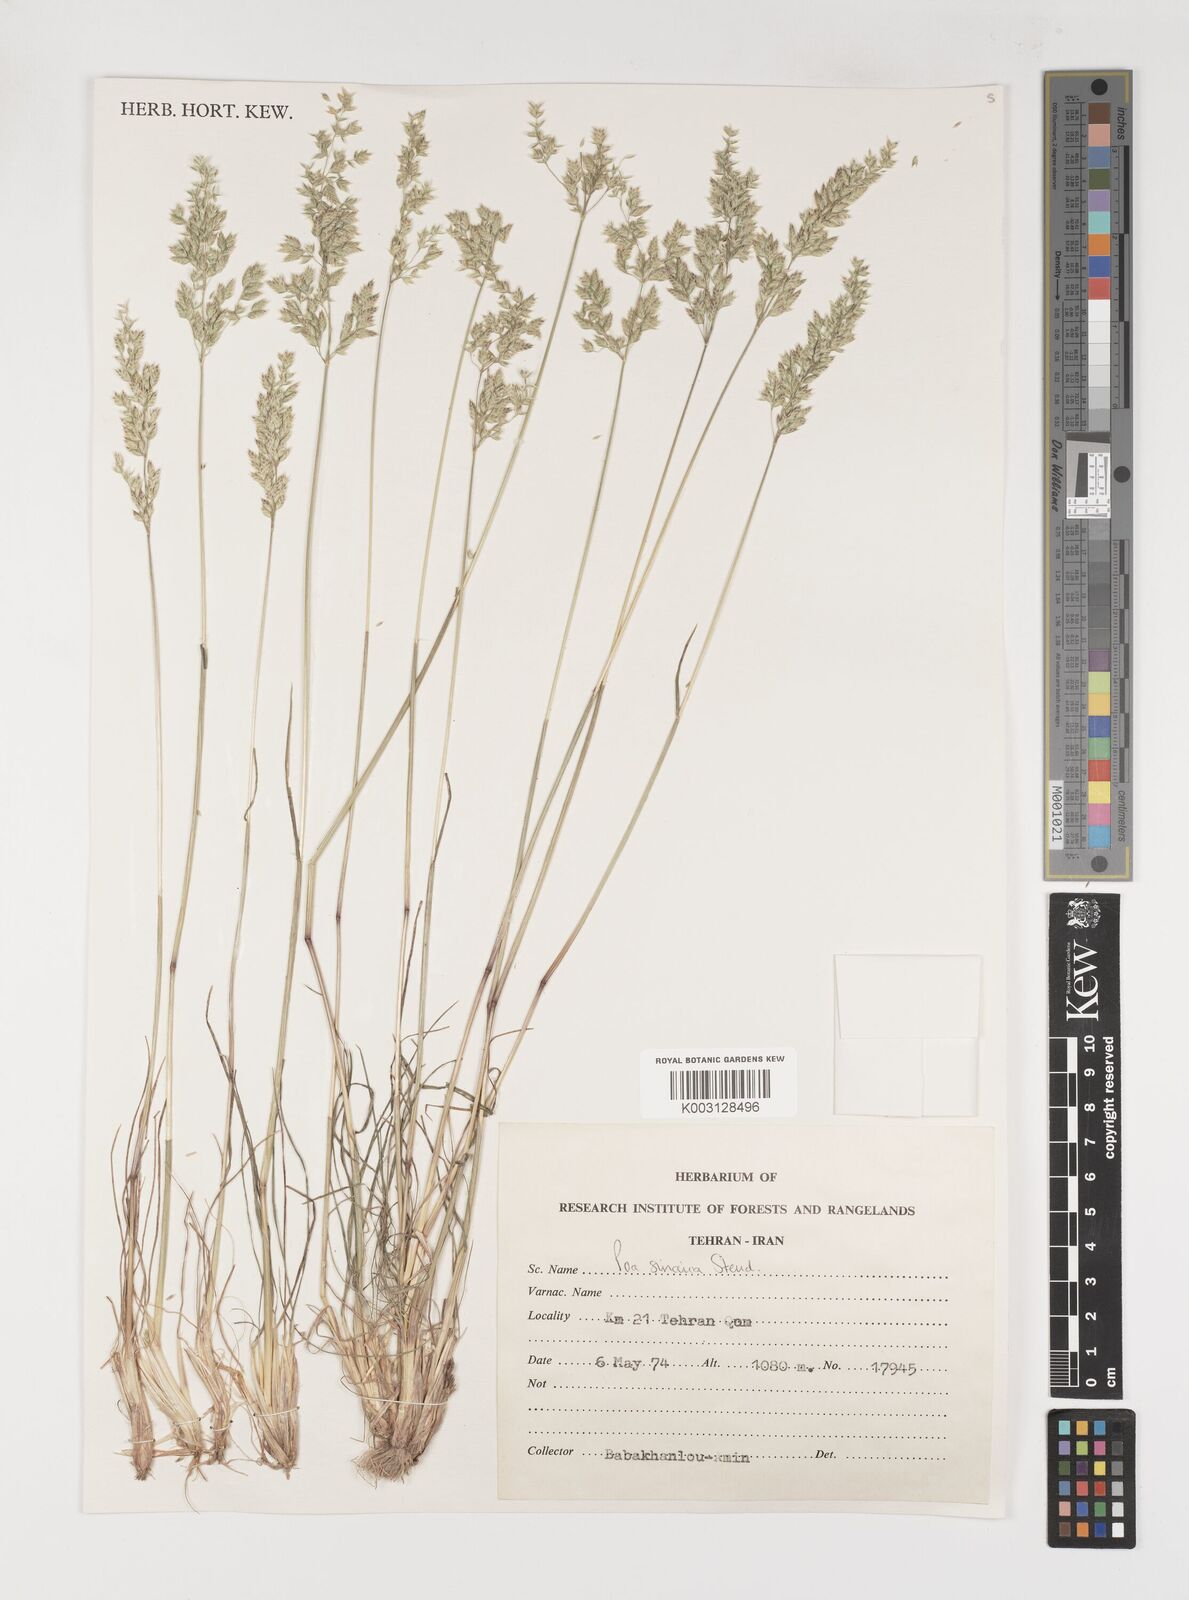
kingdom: Plantae
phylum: Tracheophyta
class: Liliopsida
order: Poales
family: Poaceae
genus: Poa
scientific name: Poa sinaica
